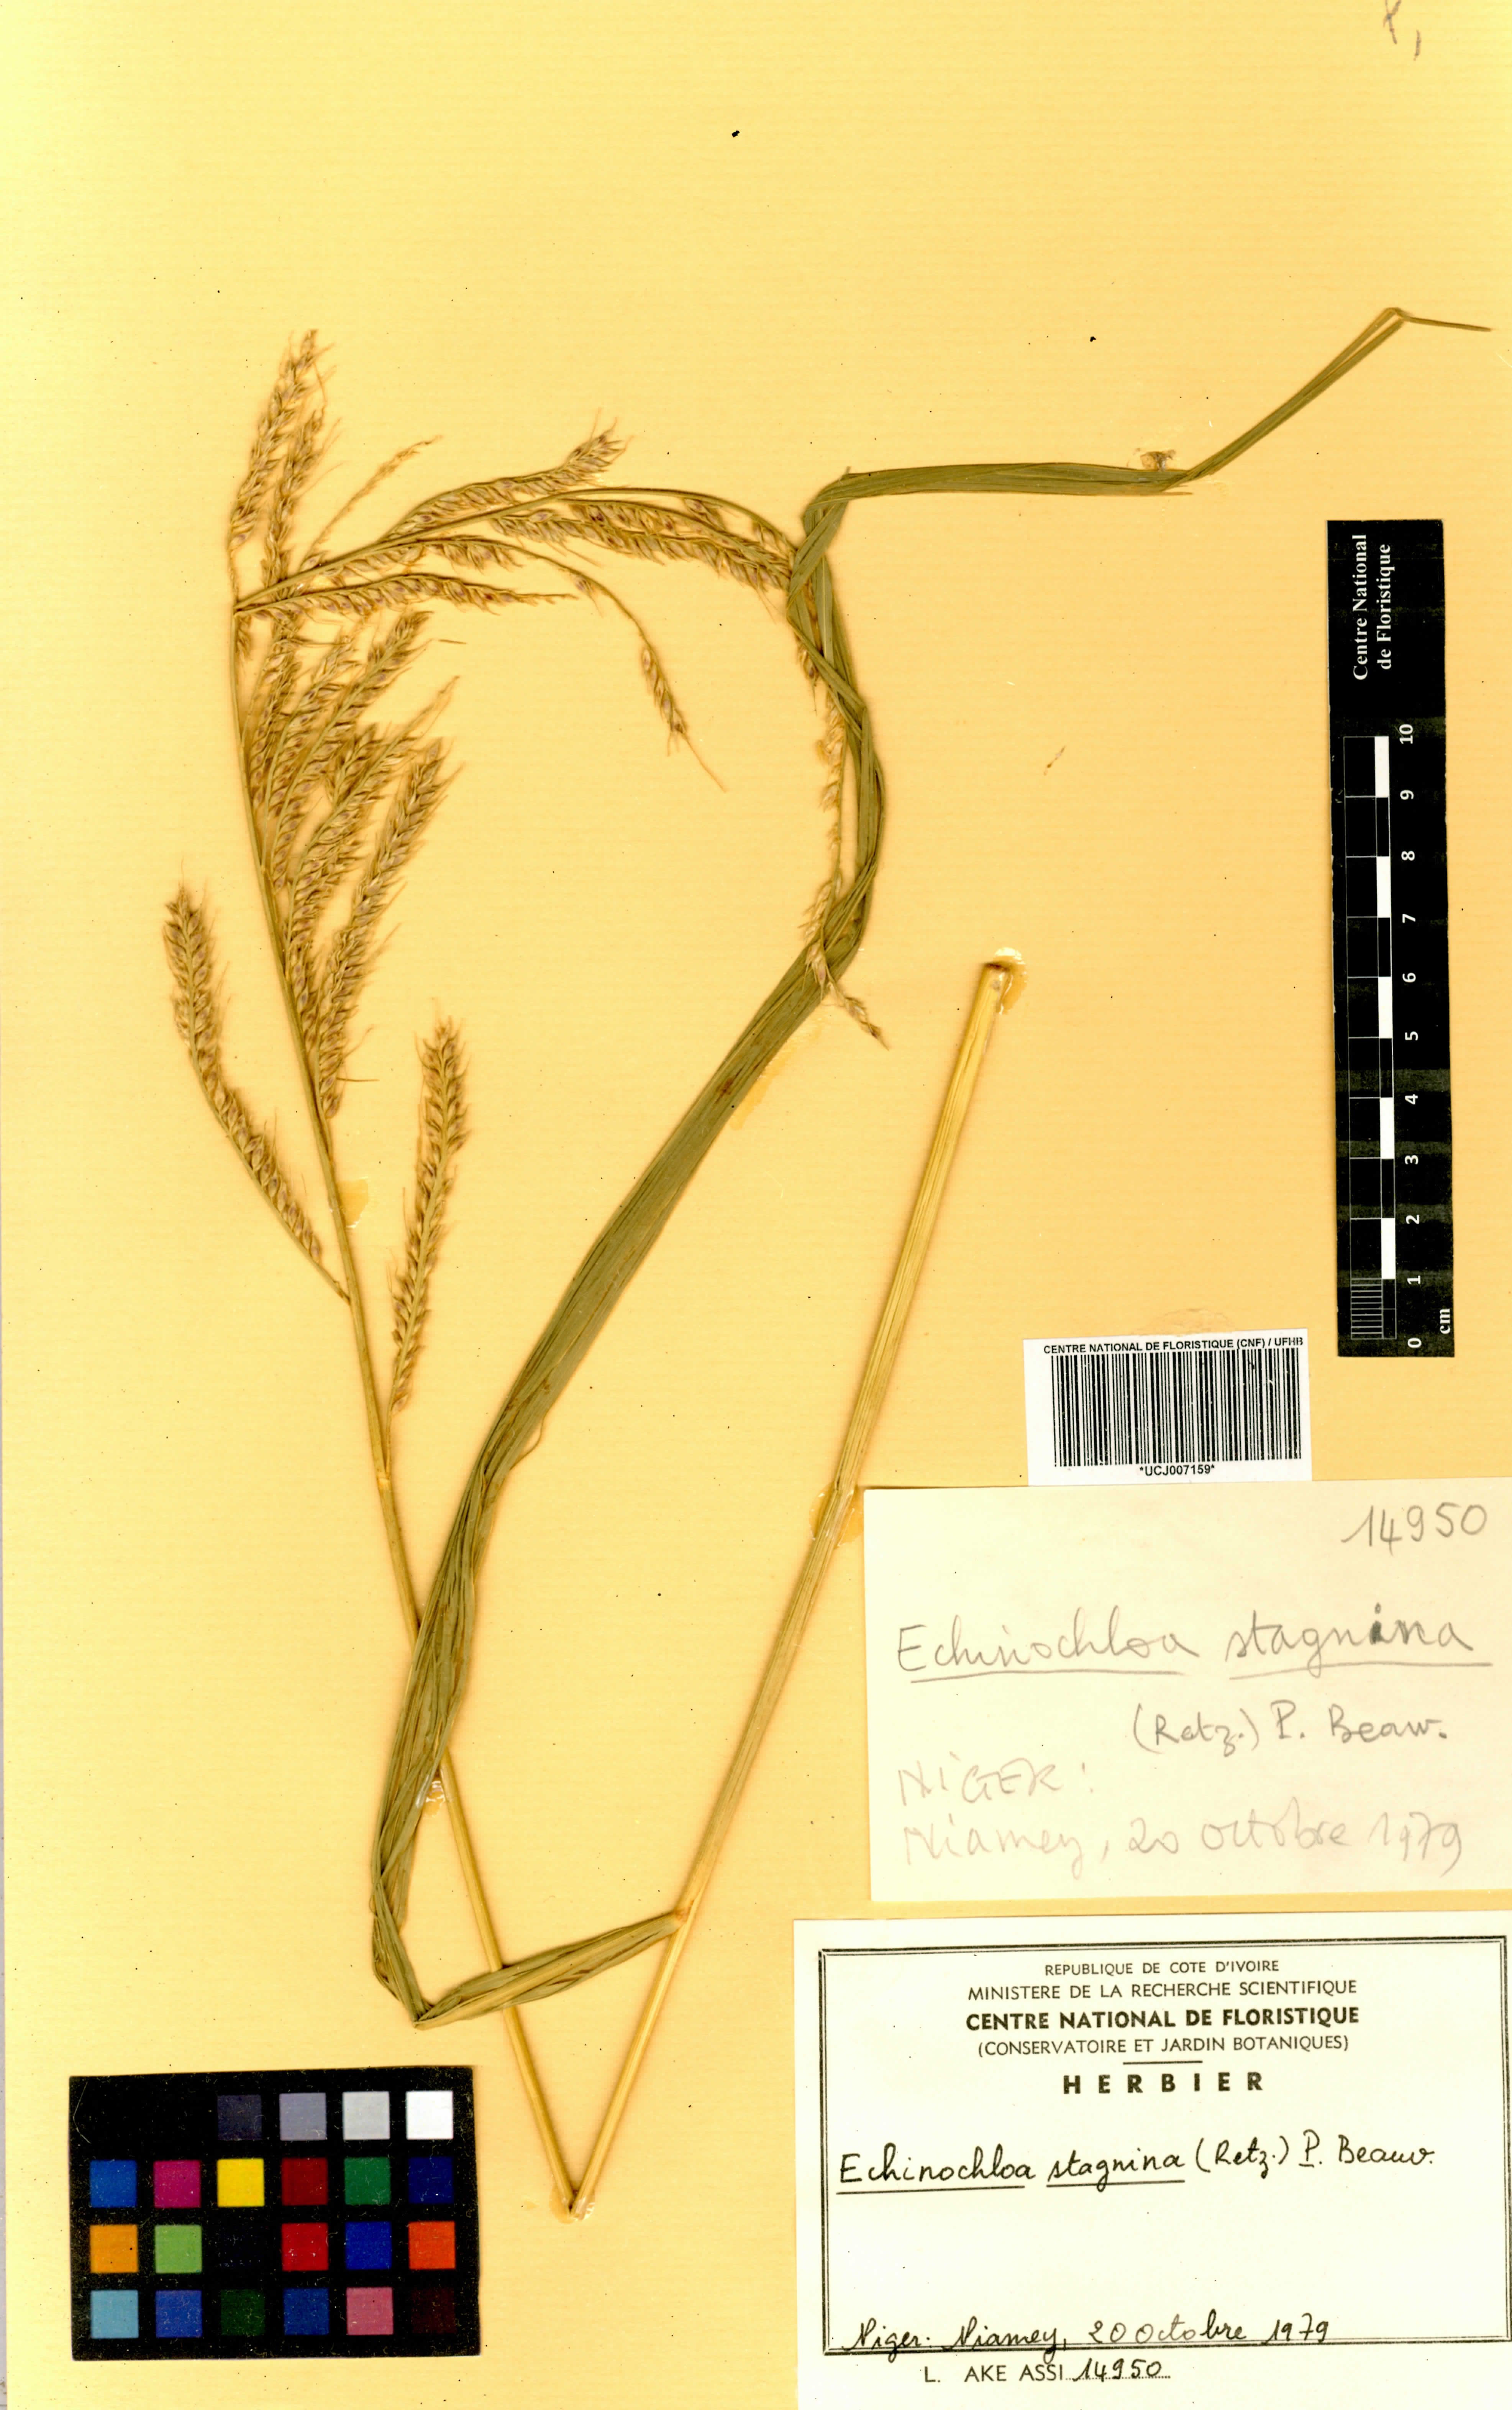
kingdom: Plantae
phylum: Tracheophyta
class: Liliopsida
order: Poales
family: Poaceae
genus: Echinochloa
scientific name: Echinochloa stagnina
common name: Burgu grass
